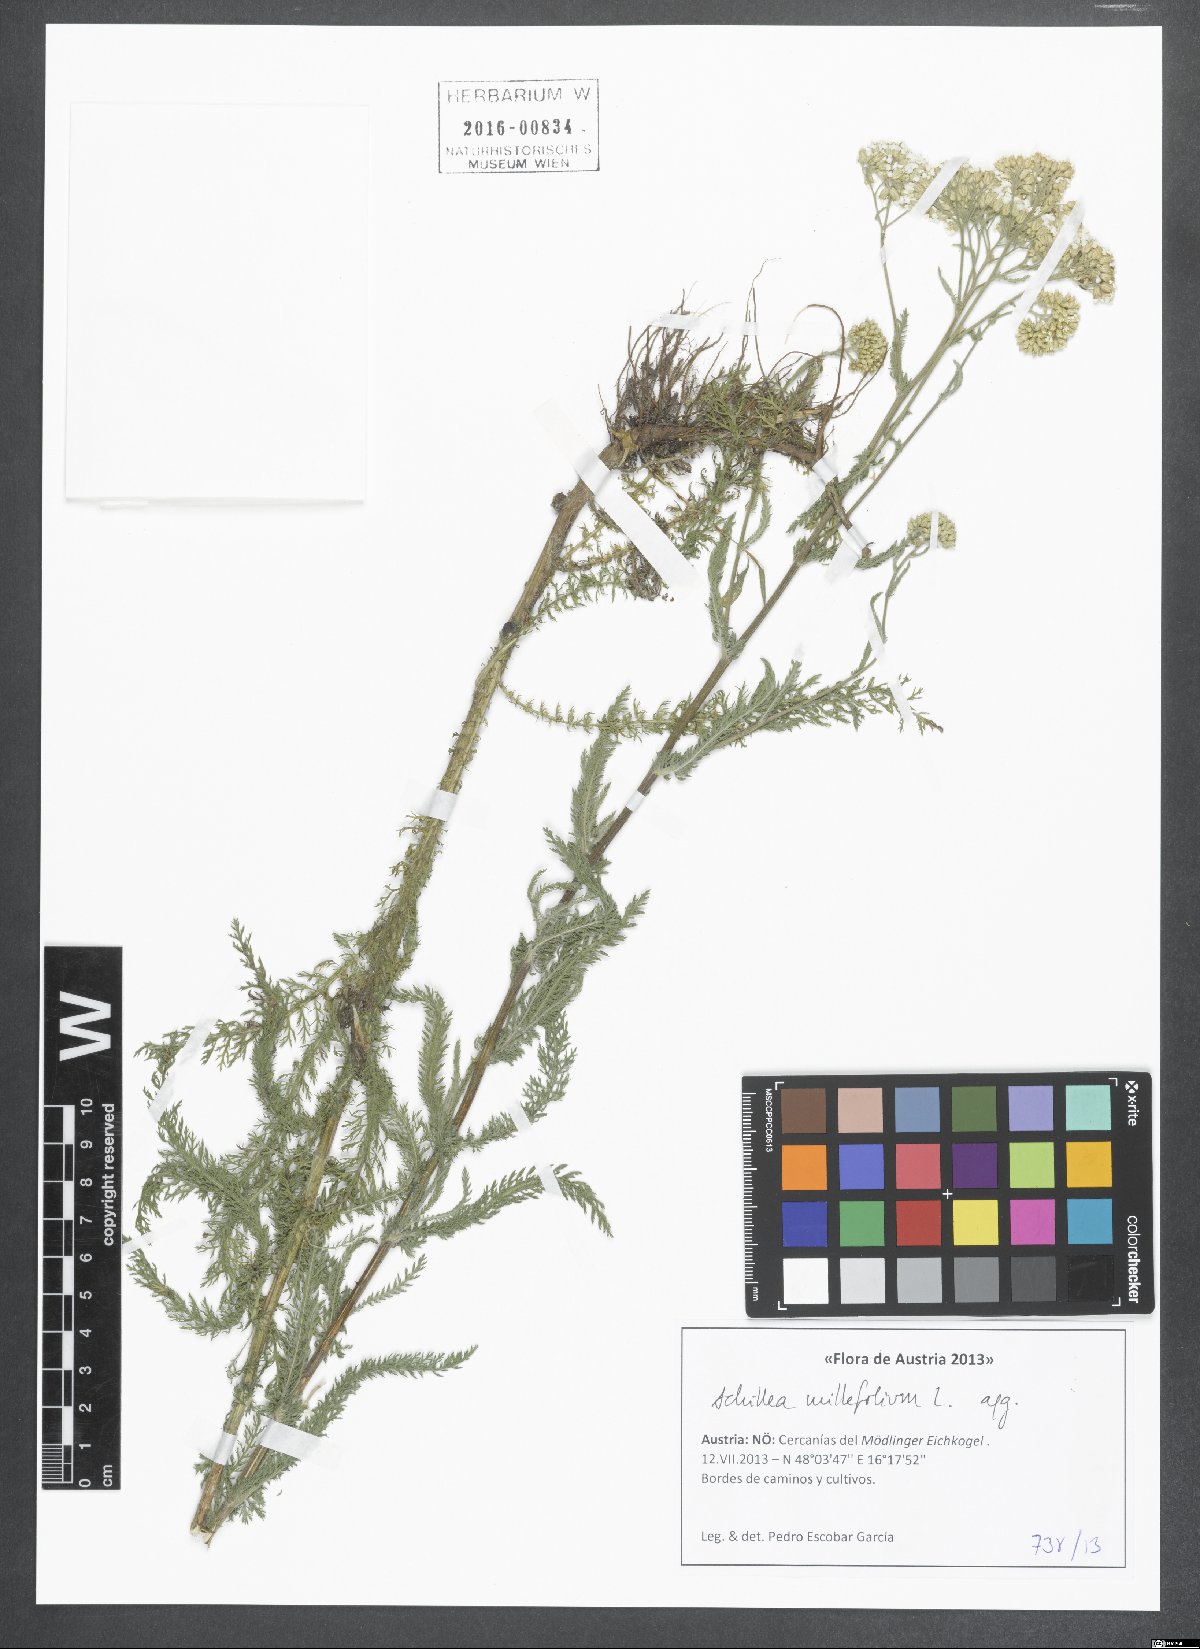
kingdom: Plantae
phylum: Tracheophyta
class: Magnoliopsida
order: Asterales
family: Asteraceae
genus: Achillea
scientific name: Achillea millefolium
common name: Yarrow
